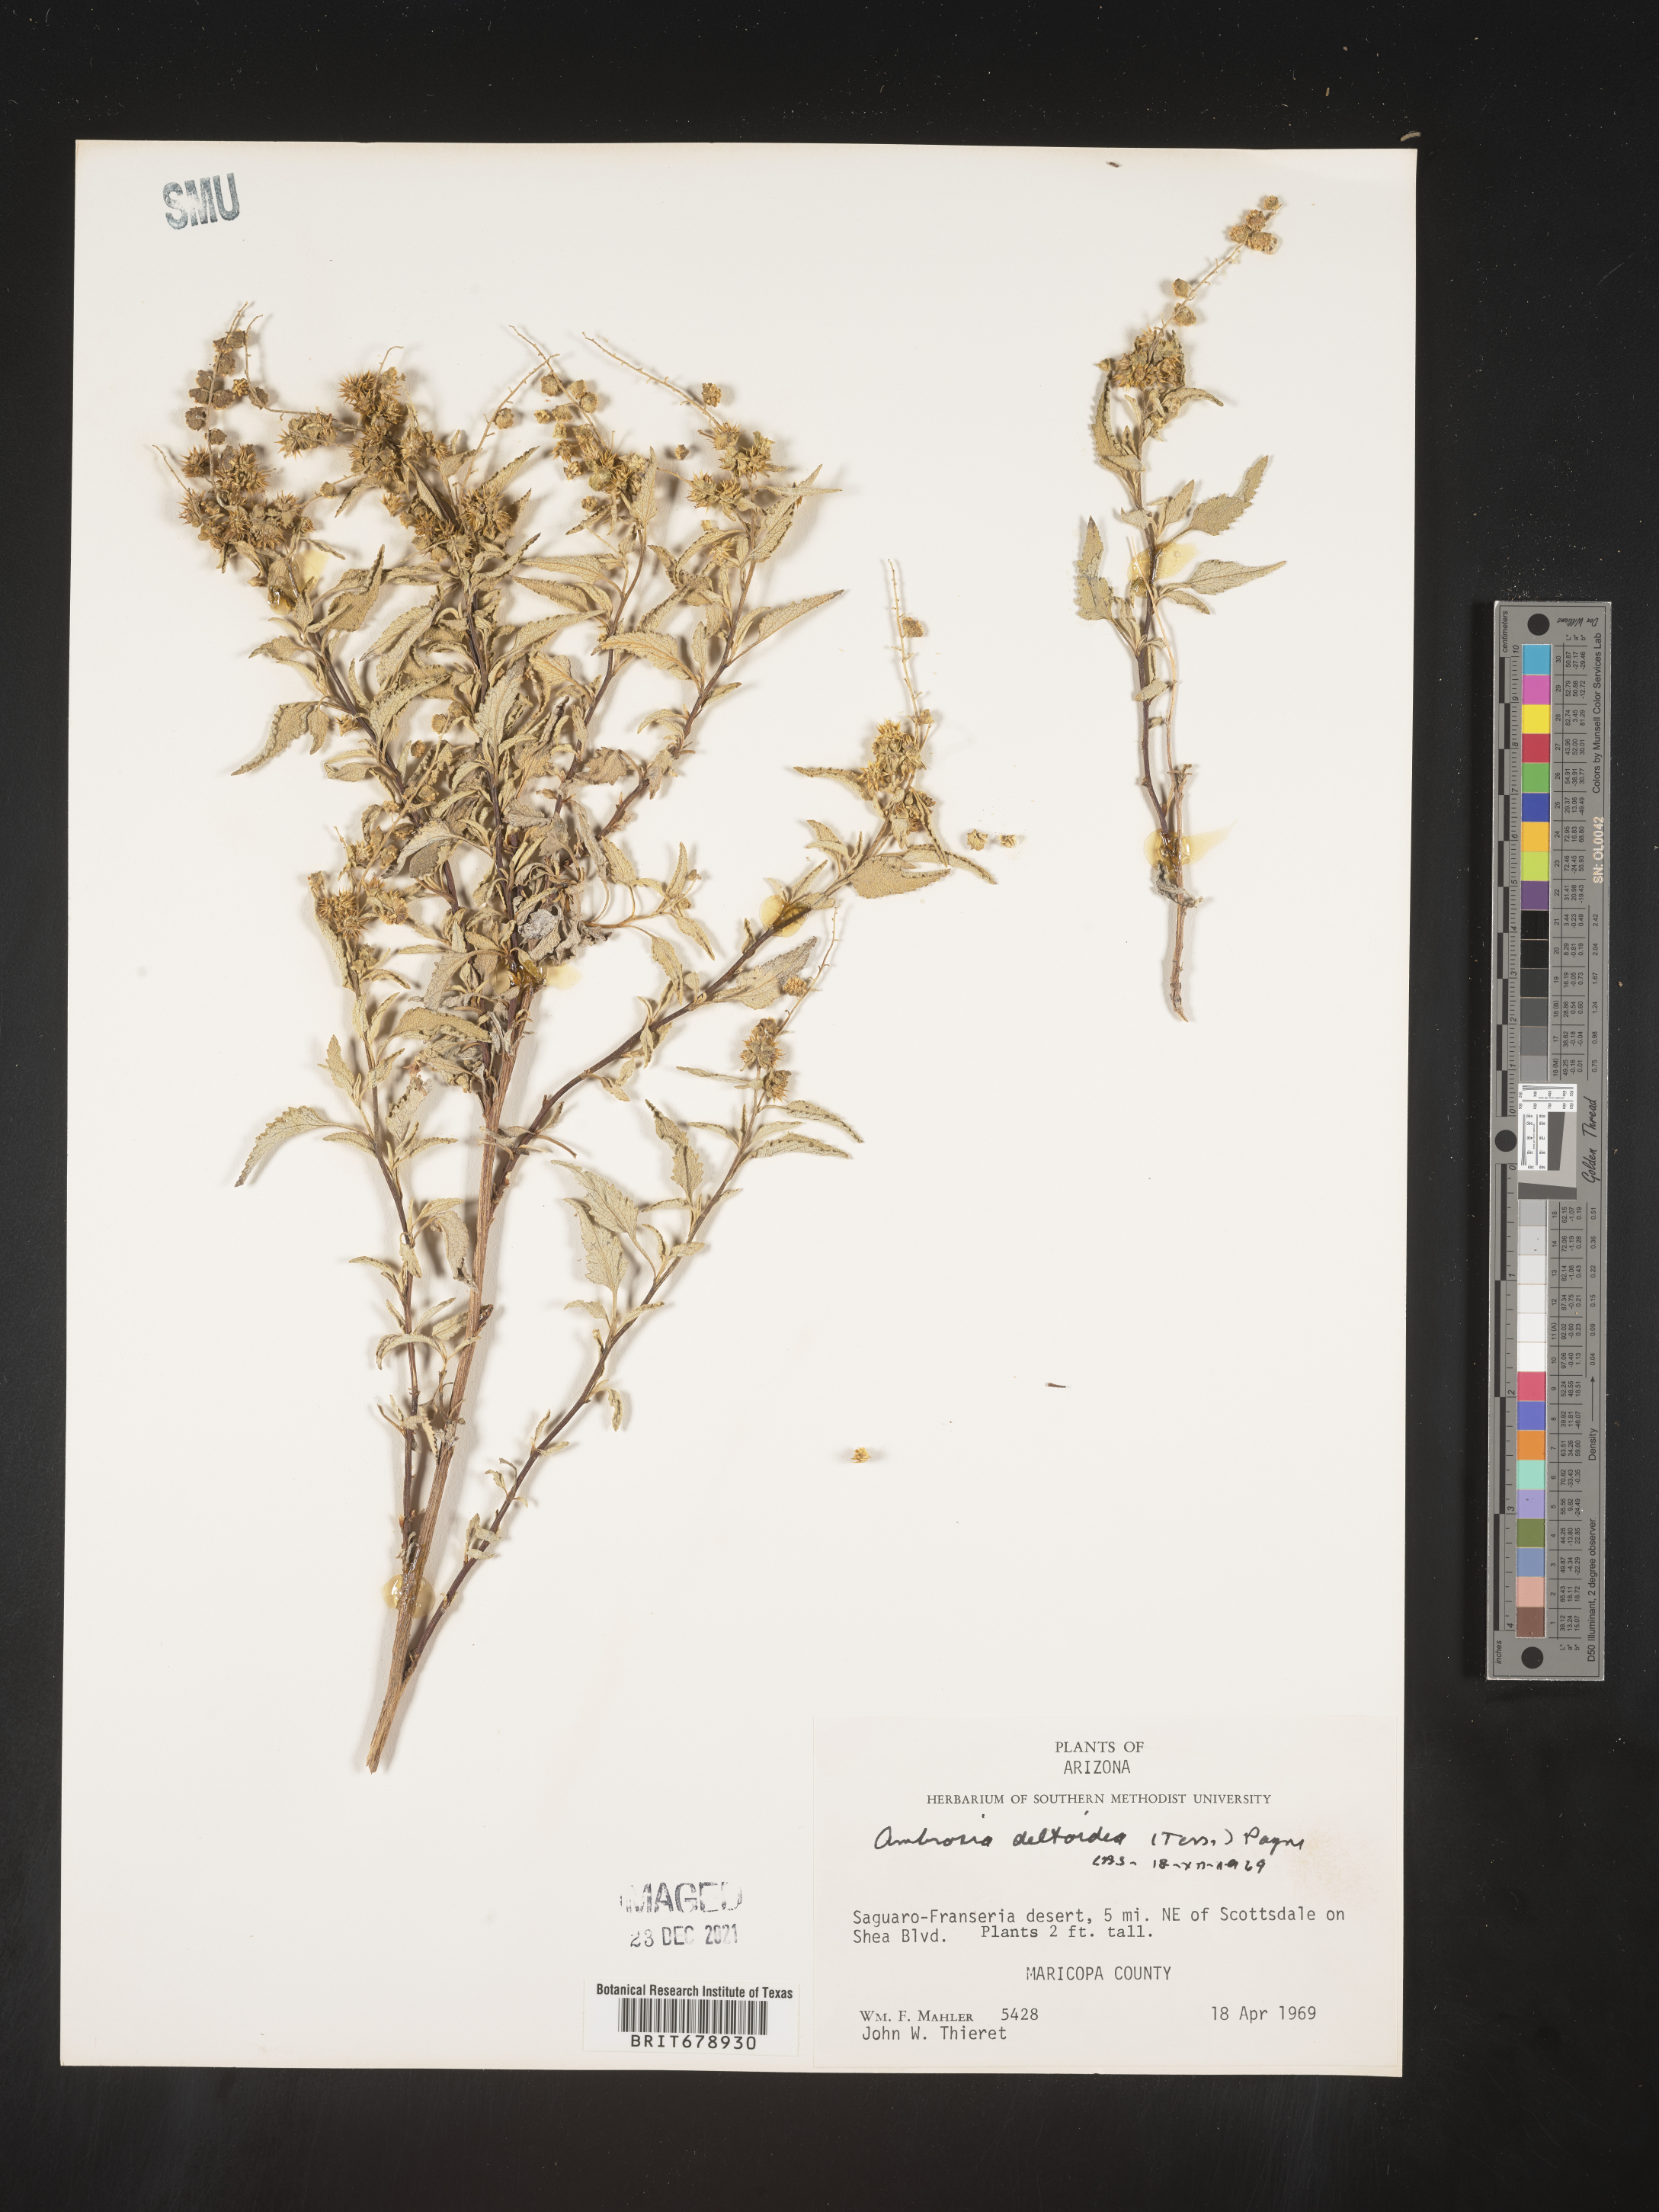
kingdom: Plantae
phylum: Tracheophyta
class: Magnoliopsida
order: Asterales
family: Asteraceae
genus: Ambrosia
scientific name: Ambrosia deltoidea
